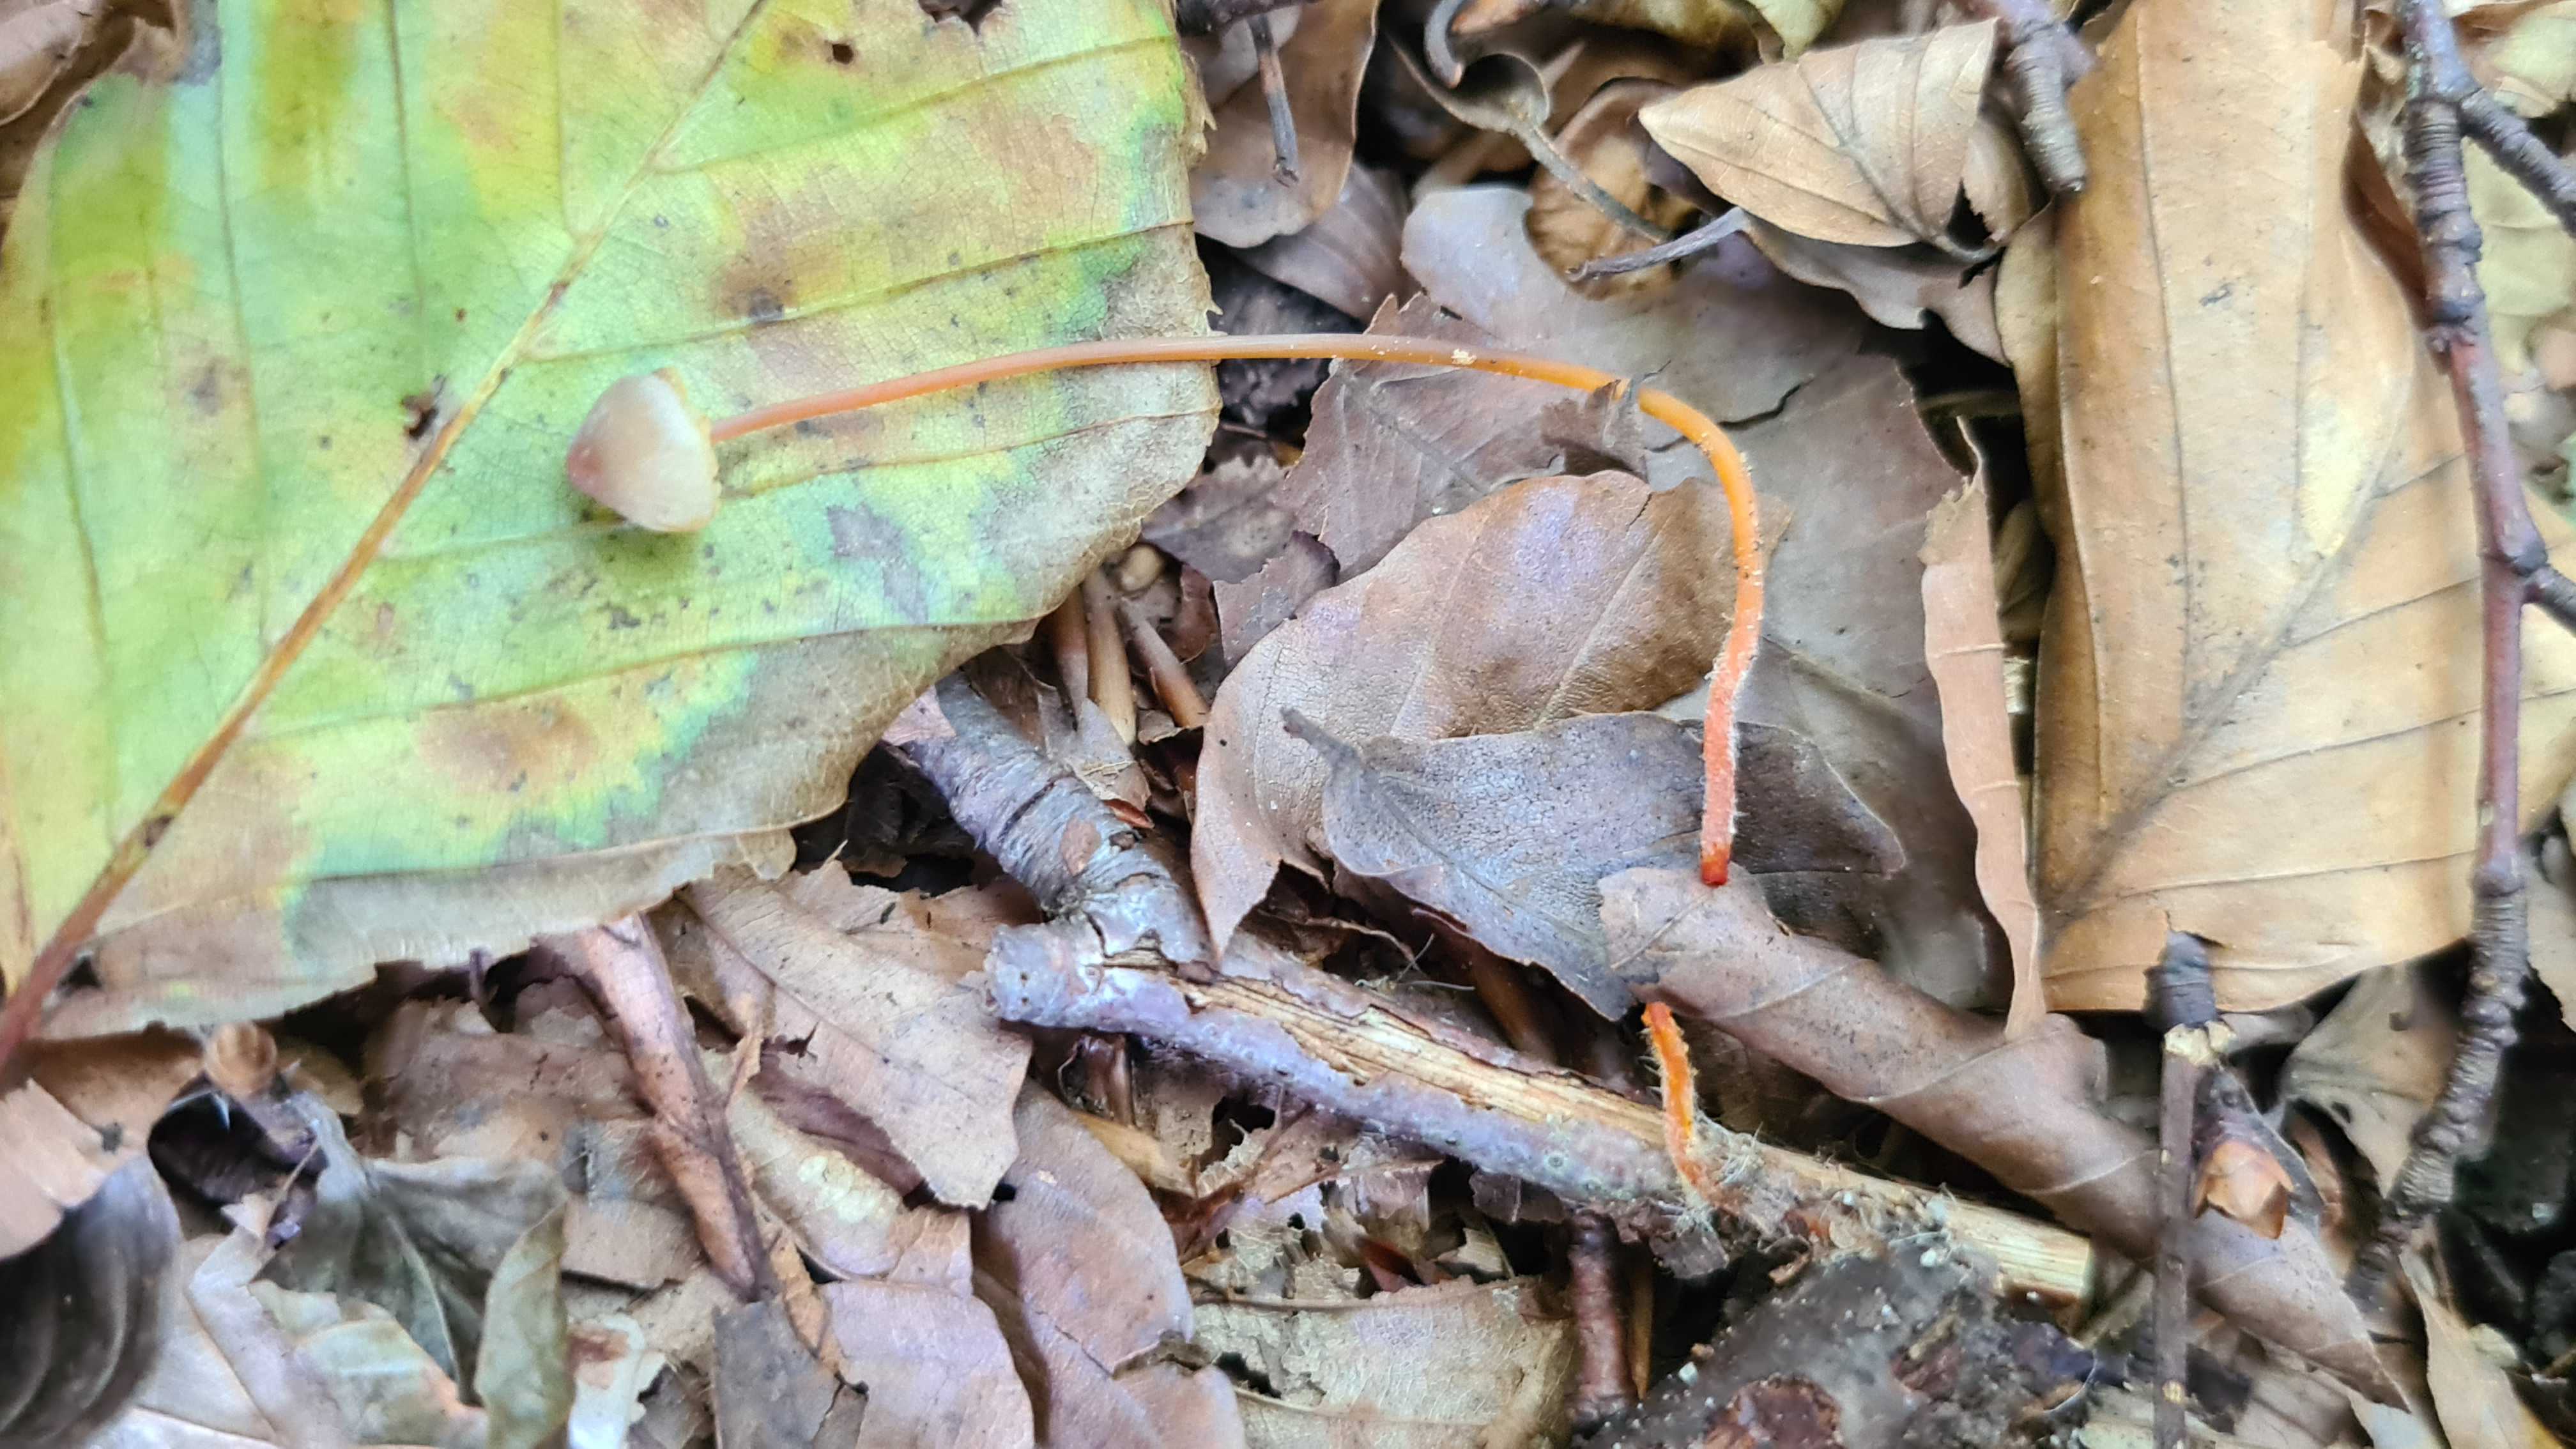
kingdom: Fungi
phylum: Basidiomycota
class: Agaricomycetes
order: Agaricales
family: Mycenaceae
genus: Mycena
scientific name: Mycena crocata
